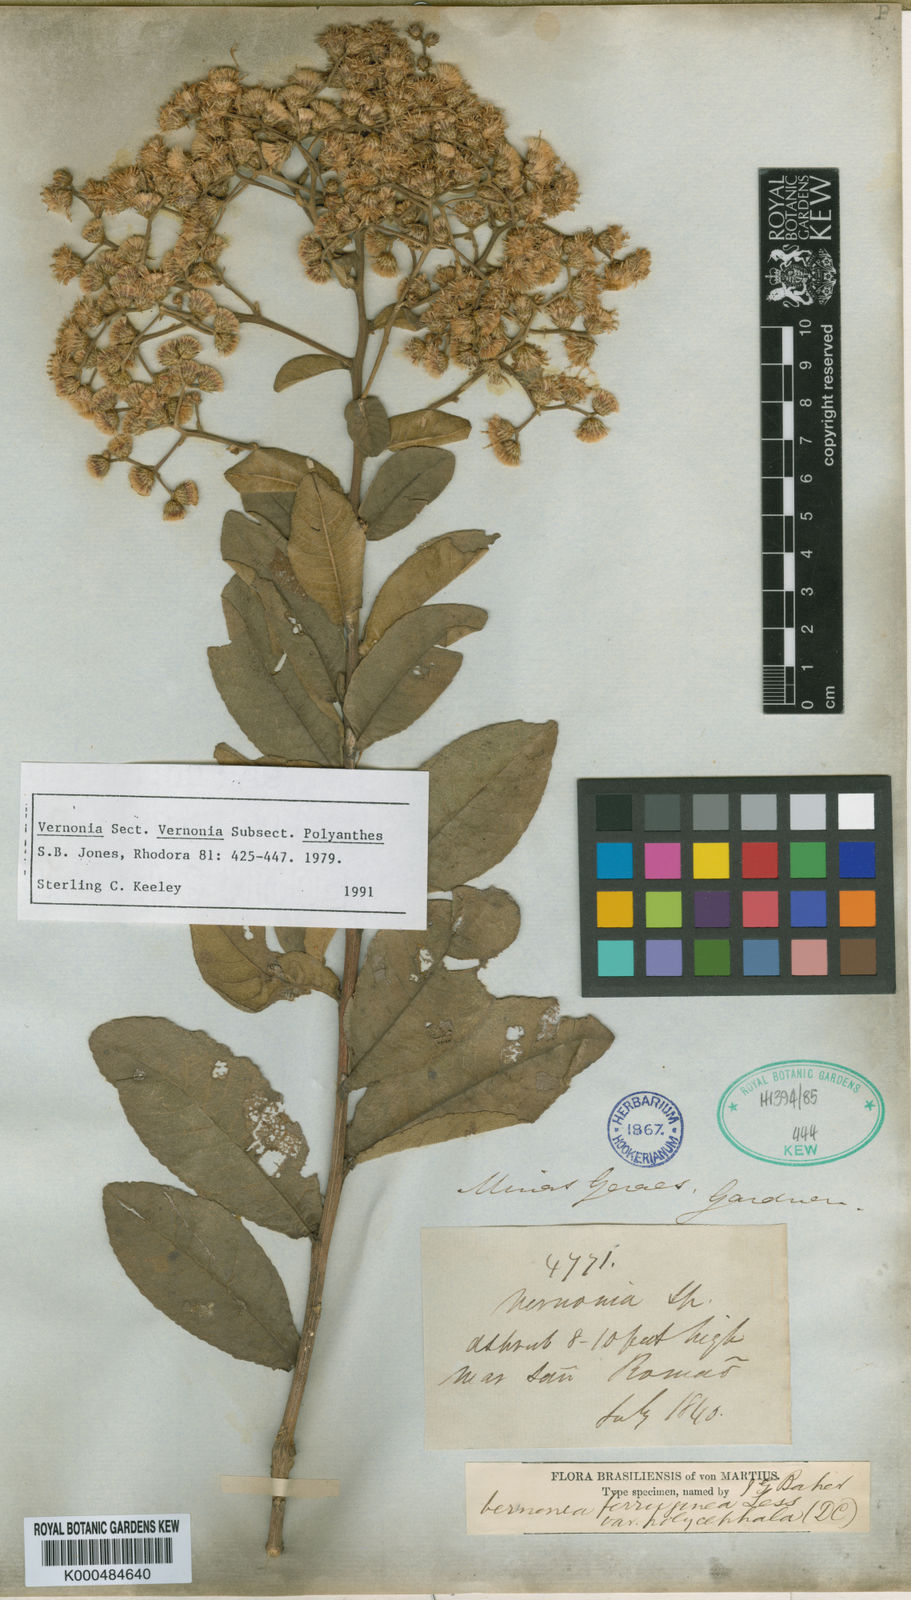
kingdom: Plantae
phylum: Tracheophyta
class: Magnoliopsida
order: Asterales
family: Asteraceae
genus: Vernonanthura
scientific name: Vernonanthura ferruginea
